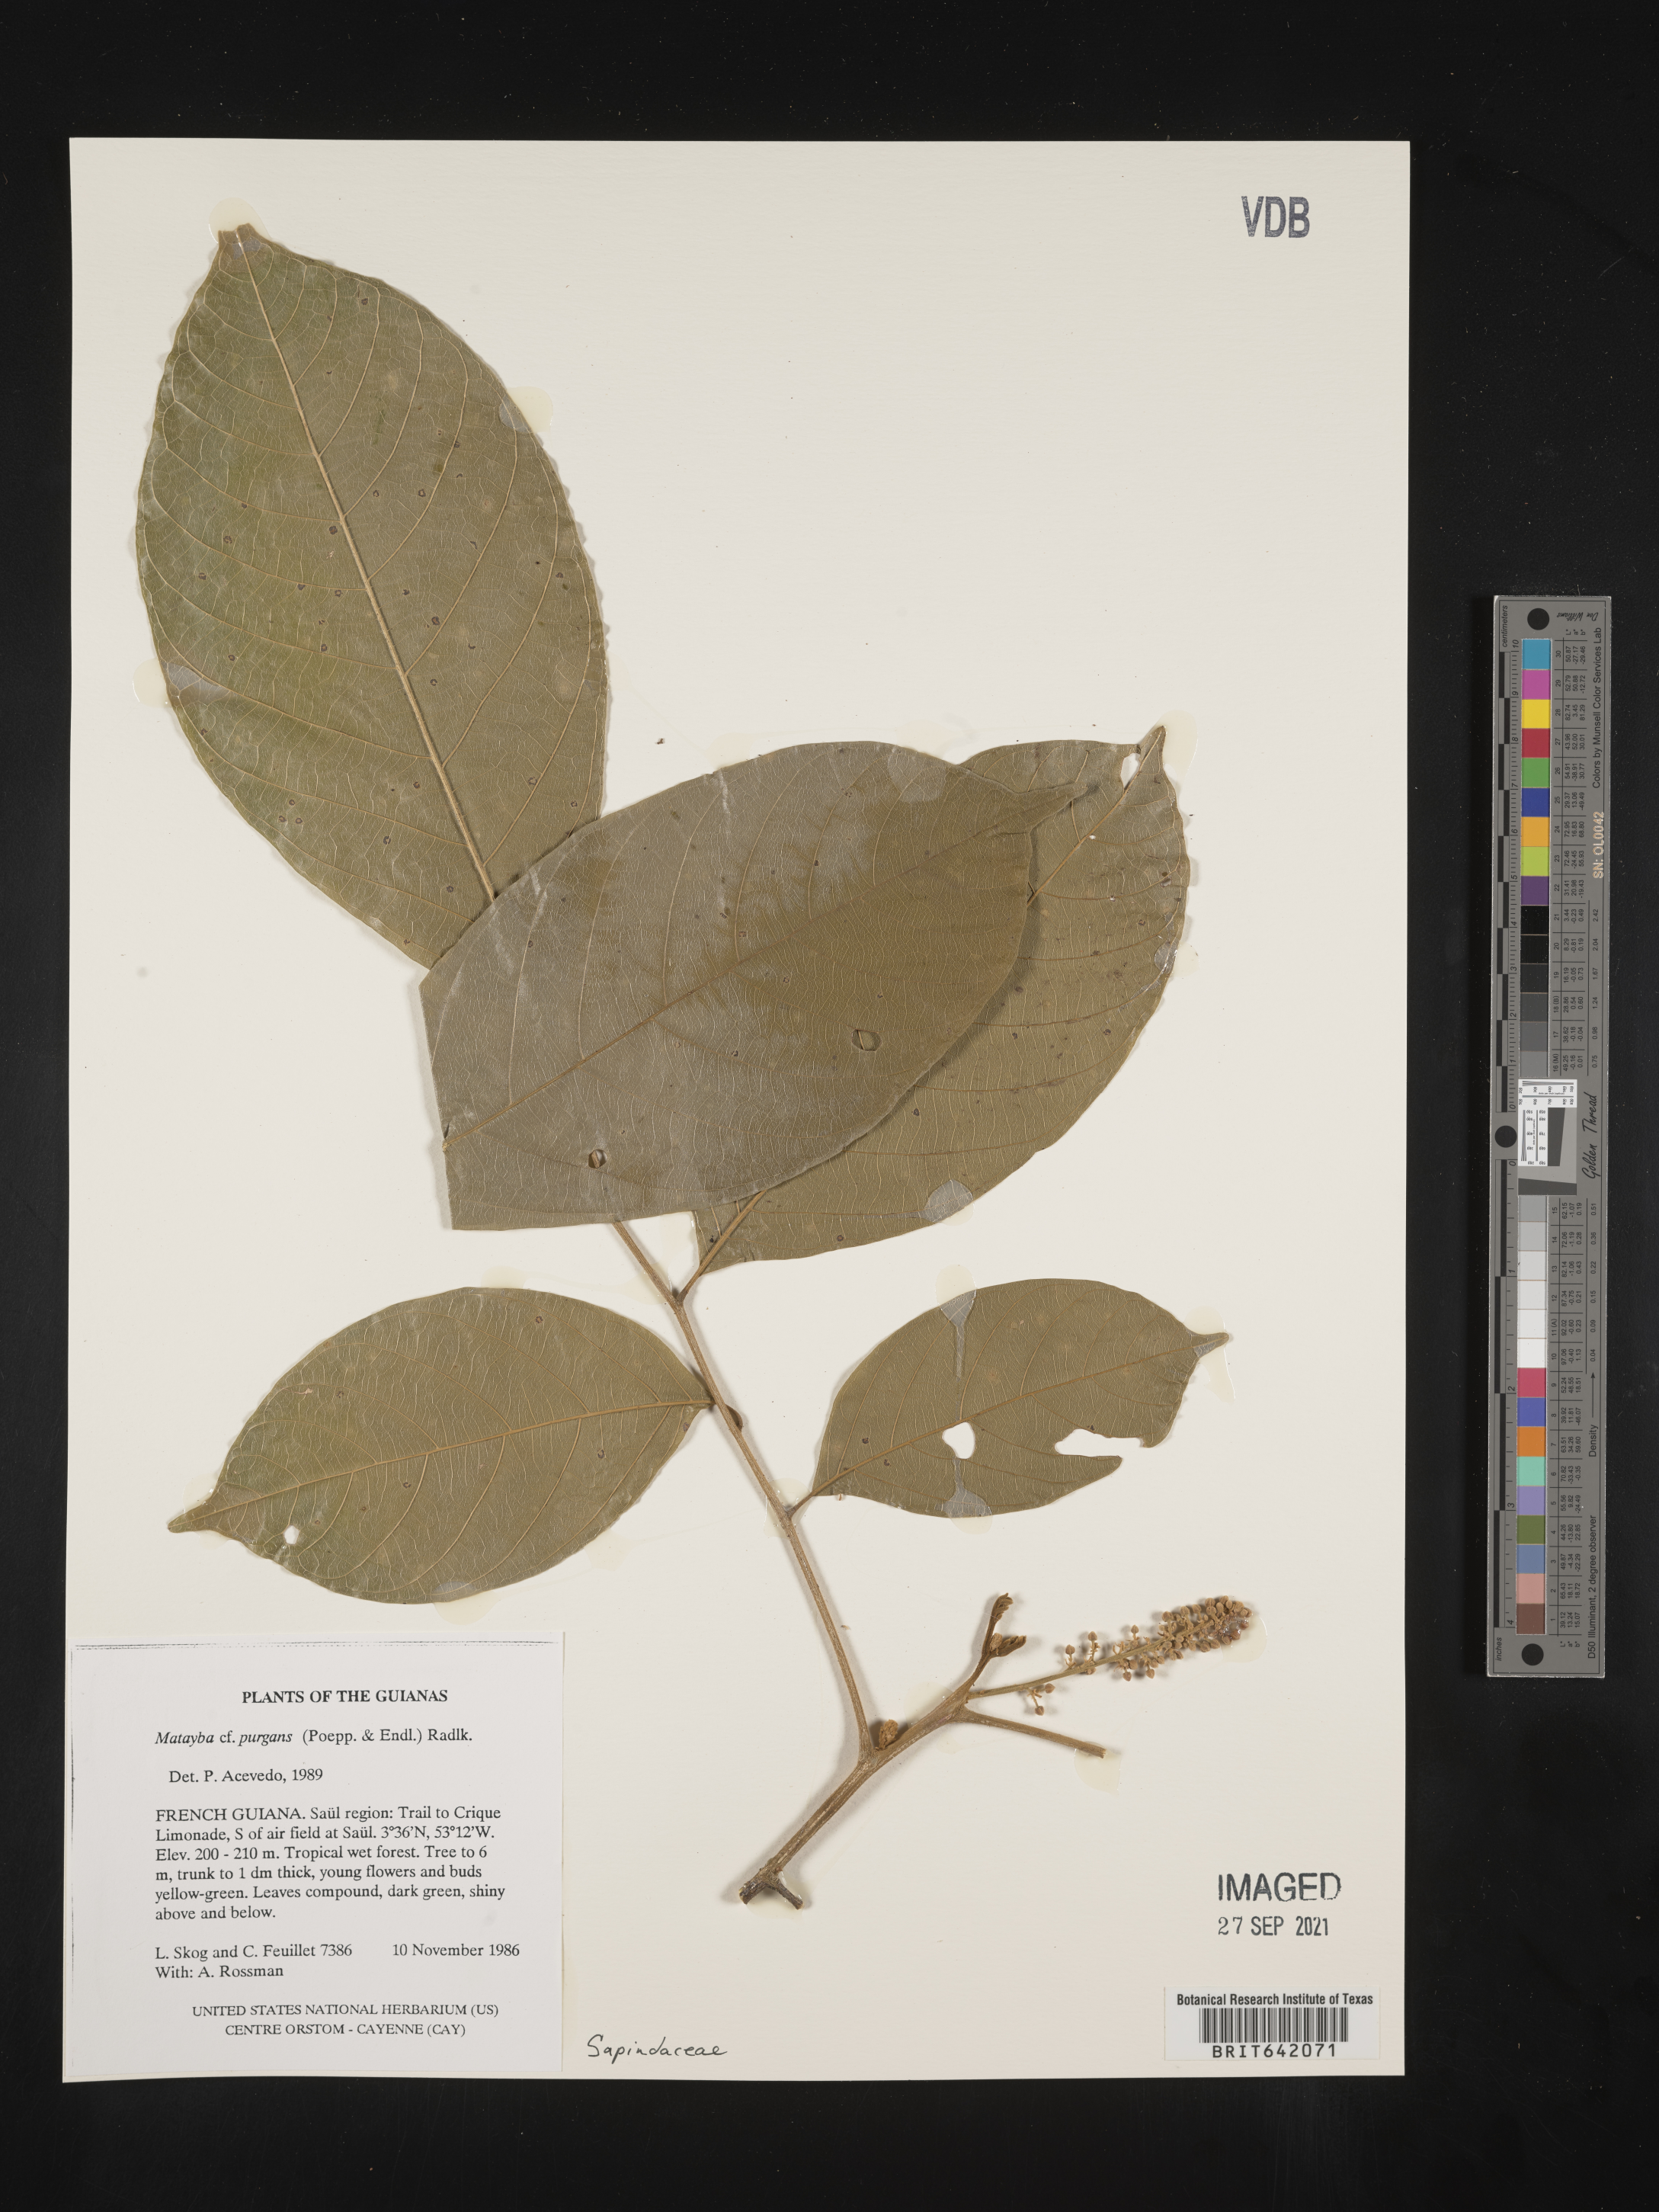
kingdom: Plantae
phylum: Tracheophyta
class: Magnoliopsida
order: Sapindales
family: Sapindaceae
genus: Matayba
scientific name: Matayba
